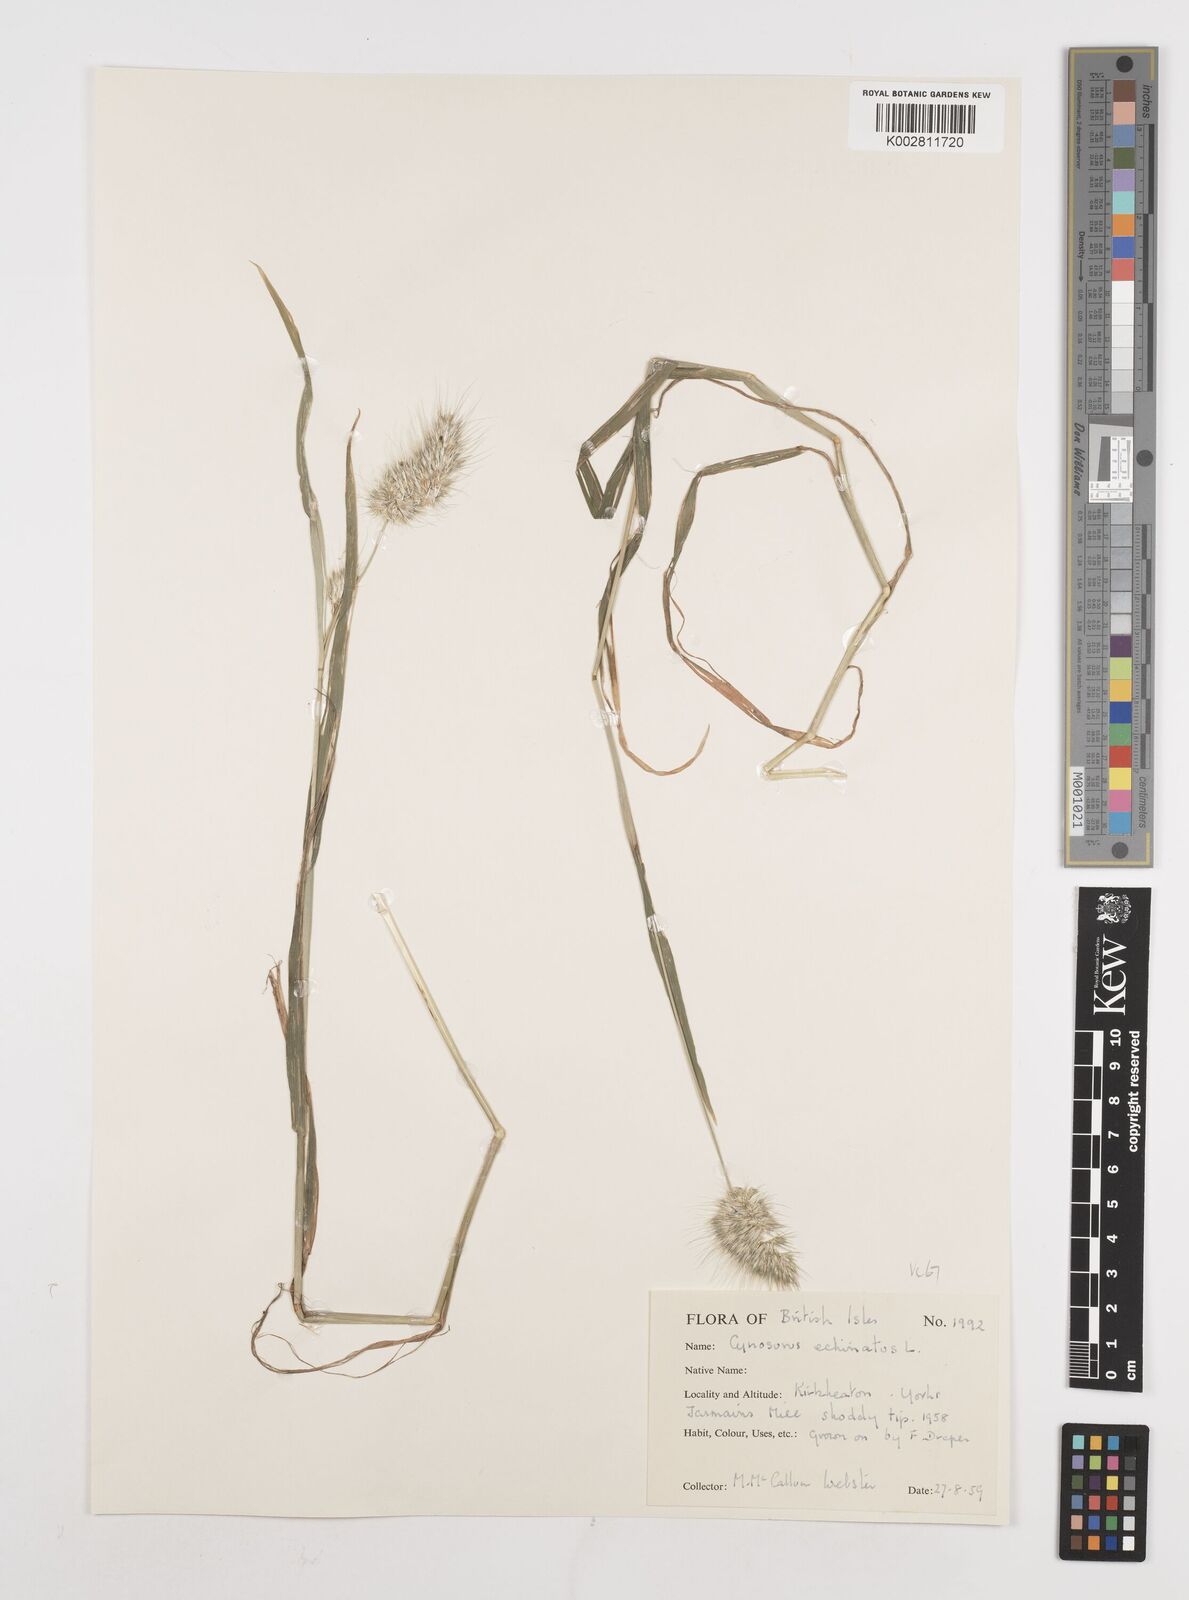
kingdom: Plantae
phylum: Tracheophyta
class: Liliopsida
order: Poales
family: Poaceae
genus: Cynosurus
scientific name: Cynosurus echinatus
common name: Rough dog's-tail
